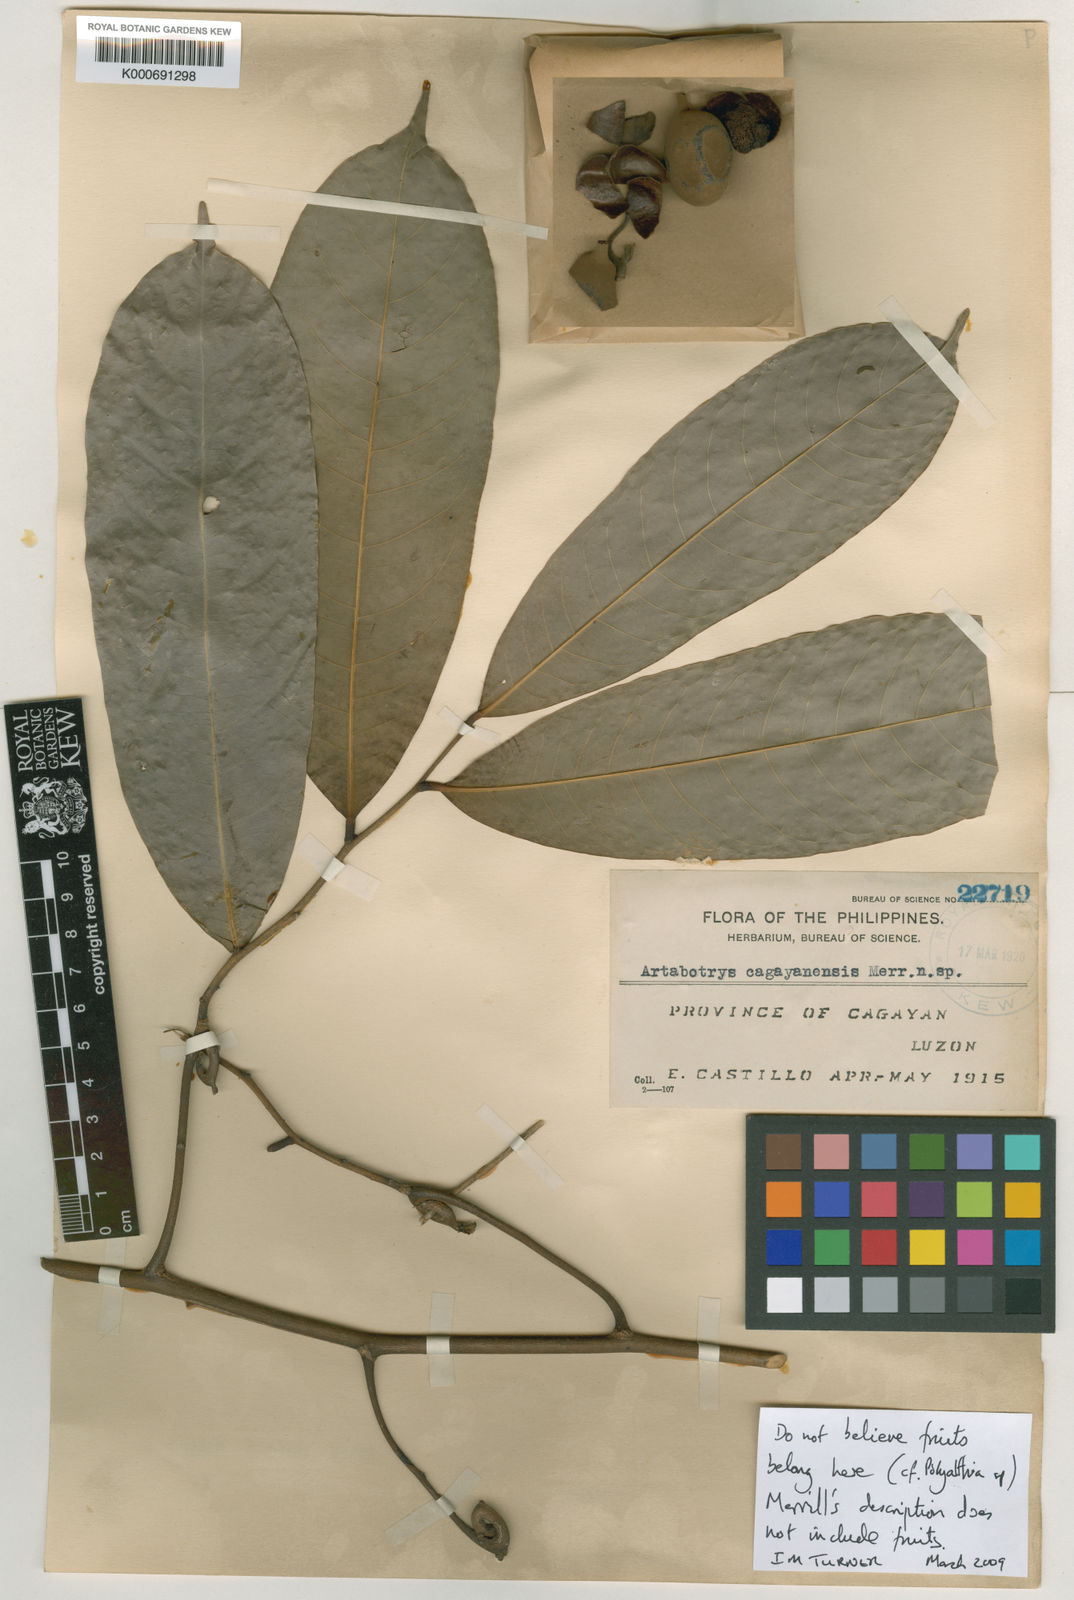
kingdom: Plantae
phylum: Tracheophyta
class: Magnoliopsida
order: Magnoliales
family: Annonaceae
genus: Artabotrys
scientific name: Artabotrys cagayanensis
